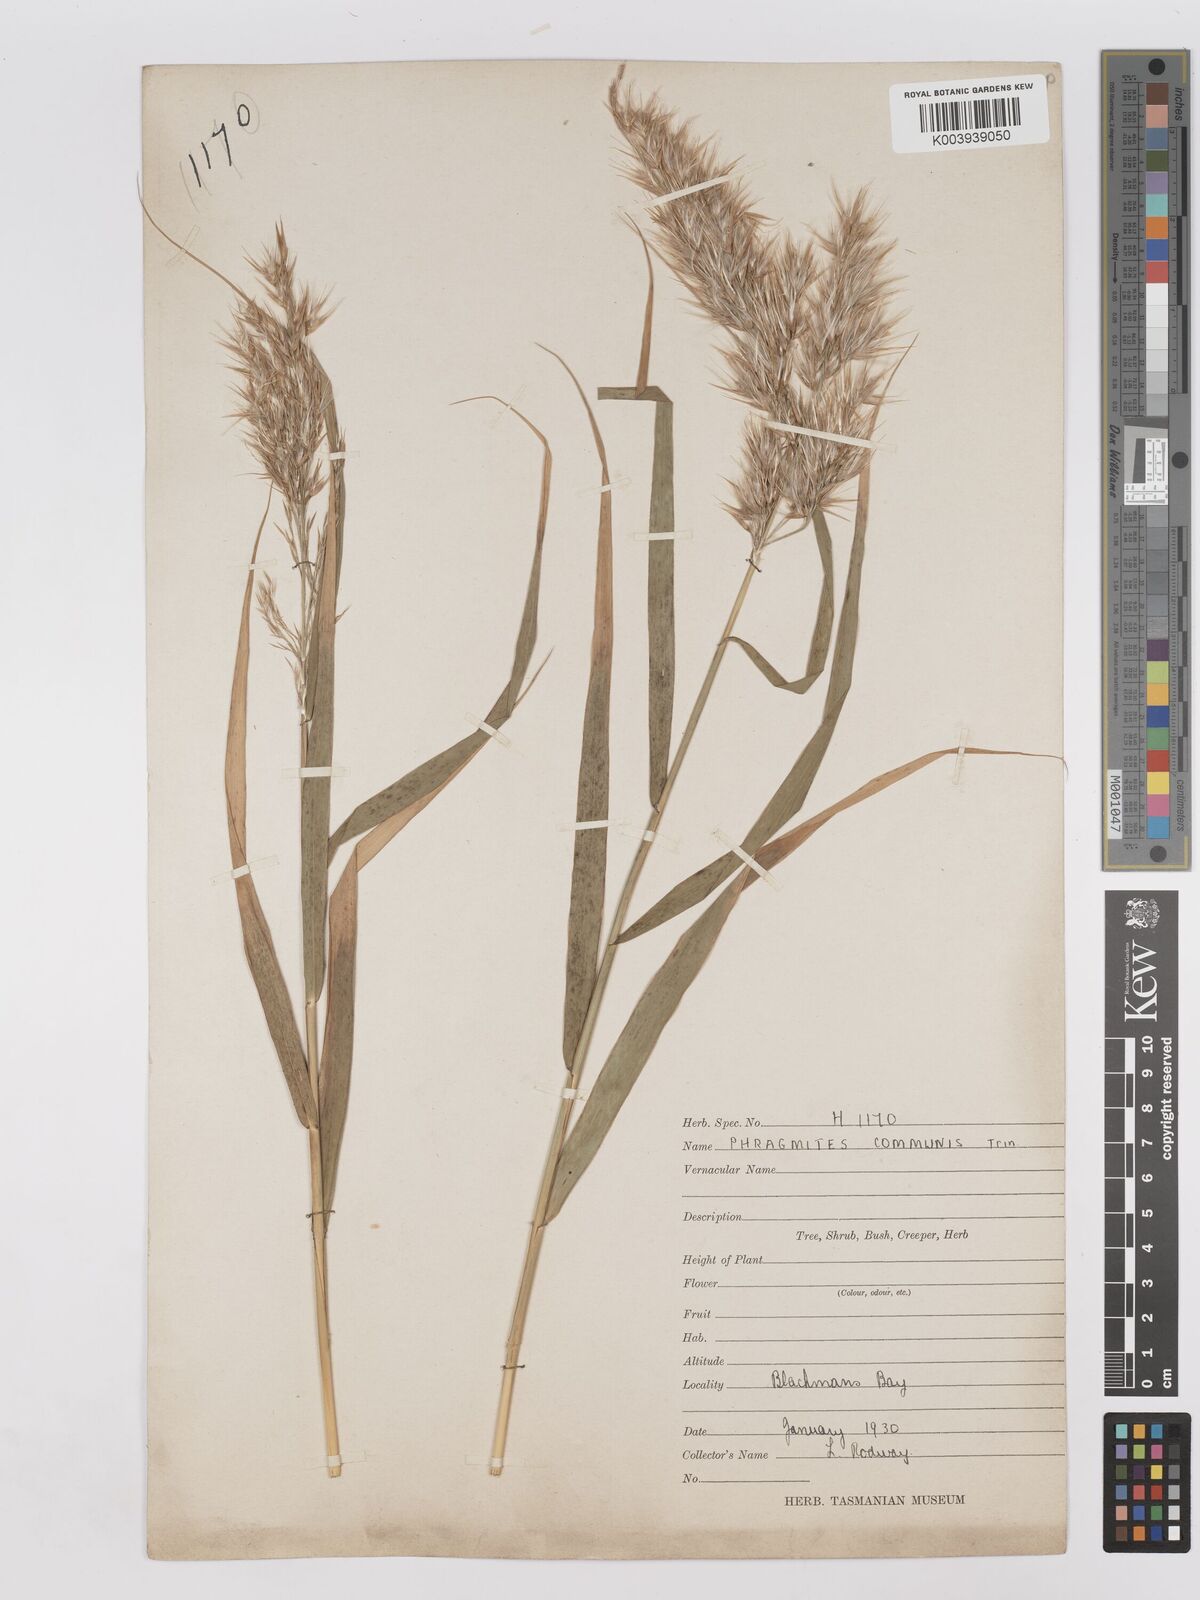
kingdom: Plantae
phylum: Tracheophyta
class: Liliopsida
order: Poales
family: Poaceae
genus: Phragmites
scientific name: Phragmites australis
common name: Common reed
